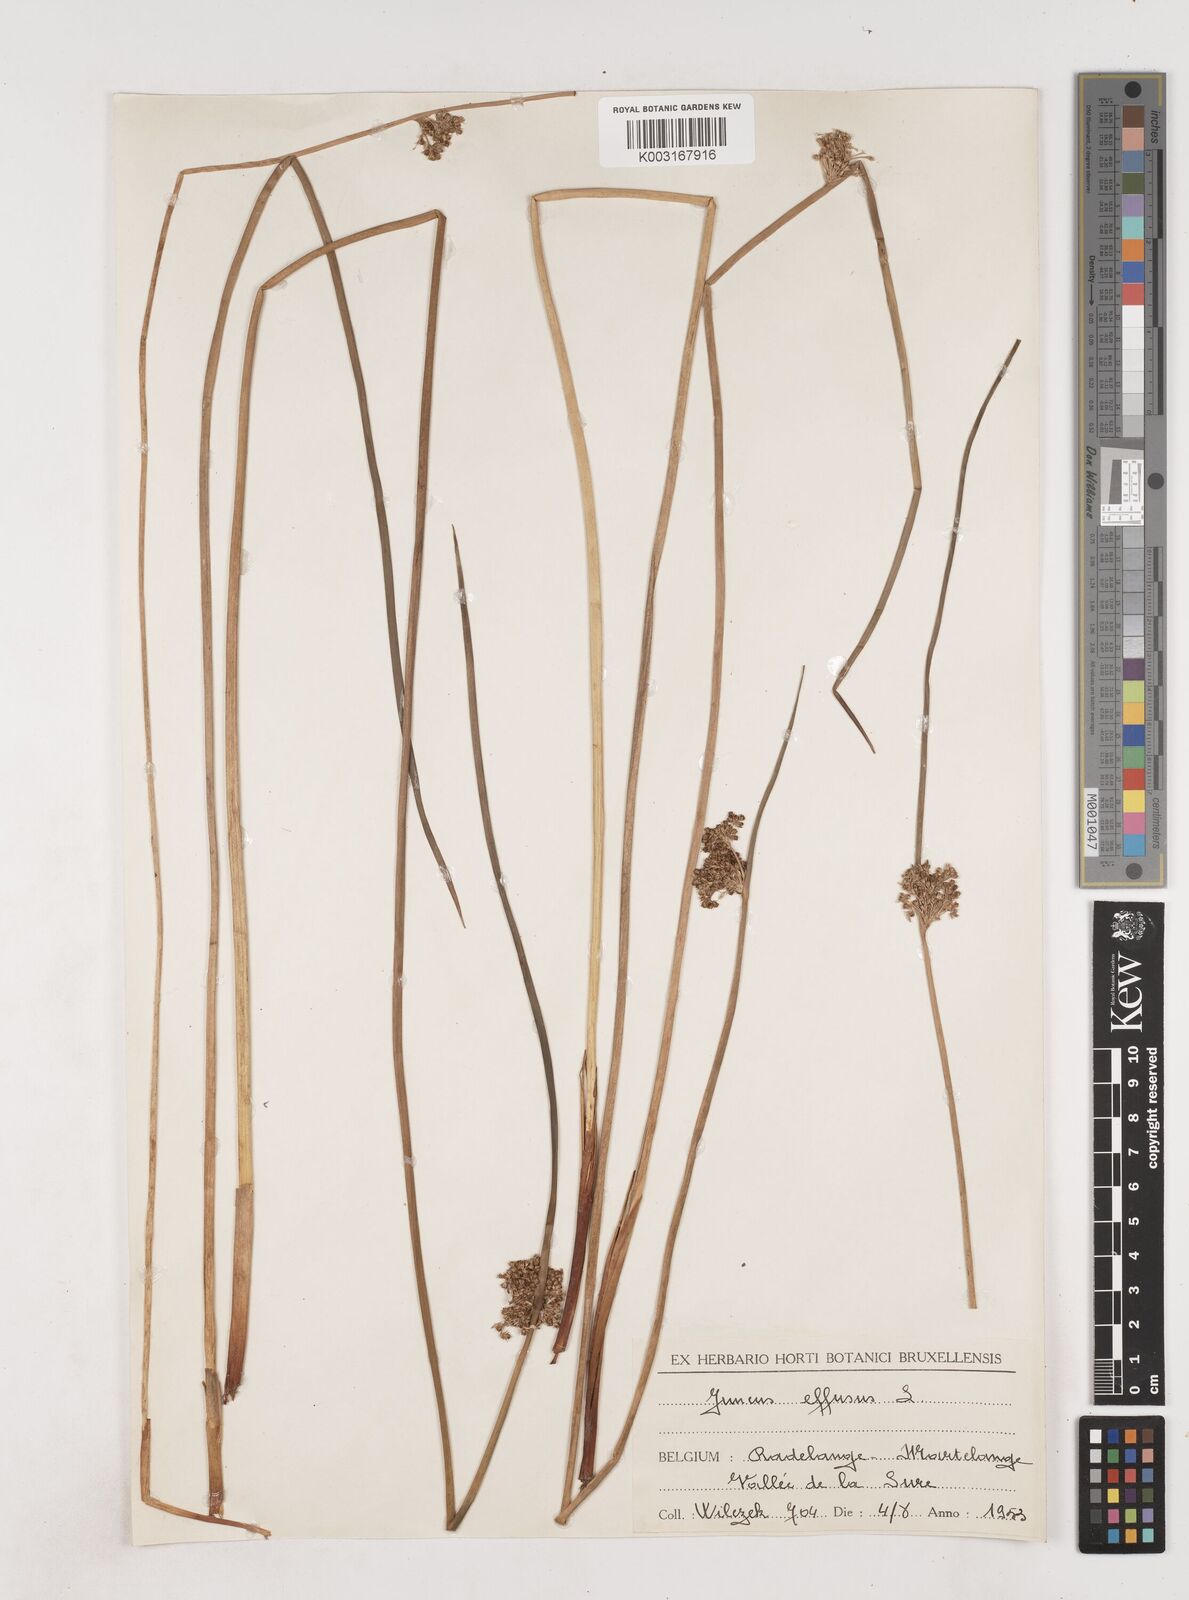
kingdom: Plantae
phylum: Tracheophyta
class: Liliopsida
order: Poales
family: Juncaceae
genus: Juncus
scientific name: Juncus effusus
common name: Soft rush
